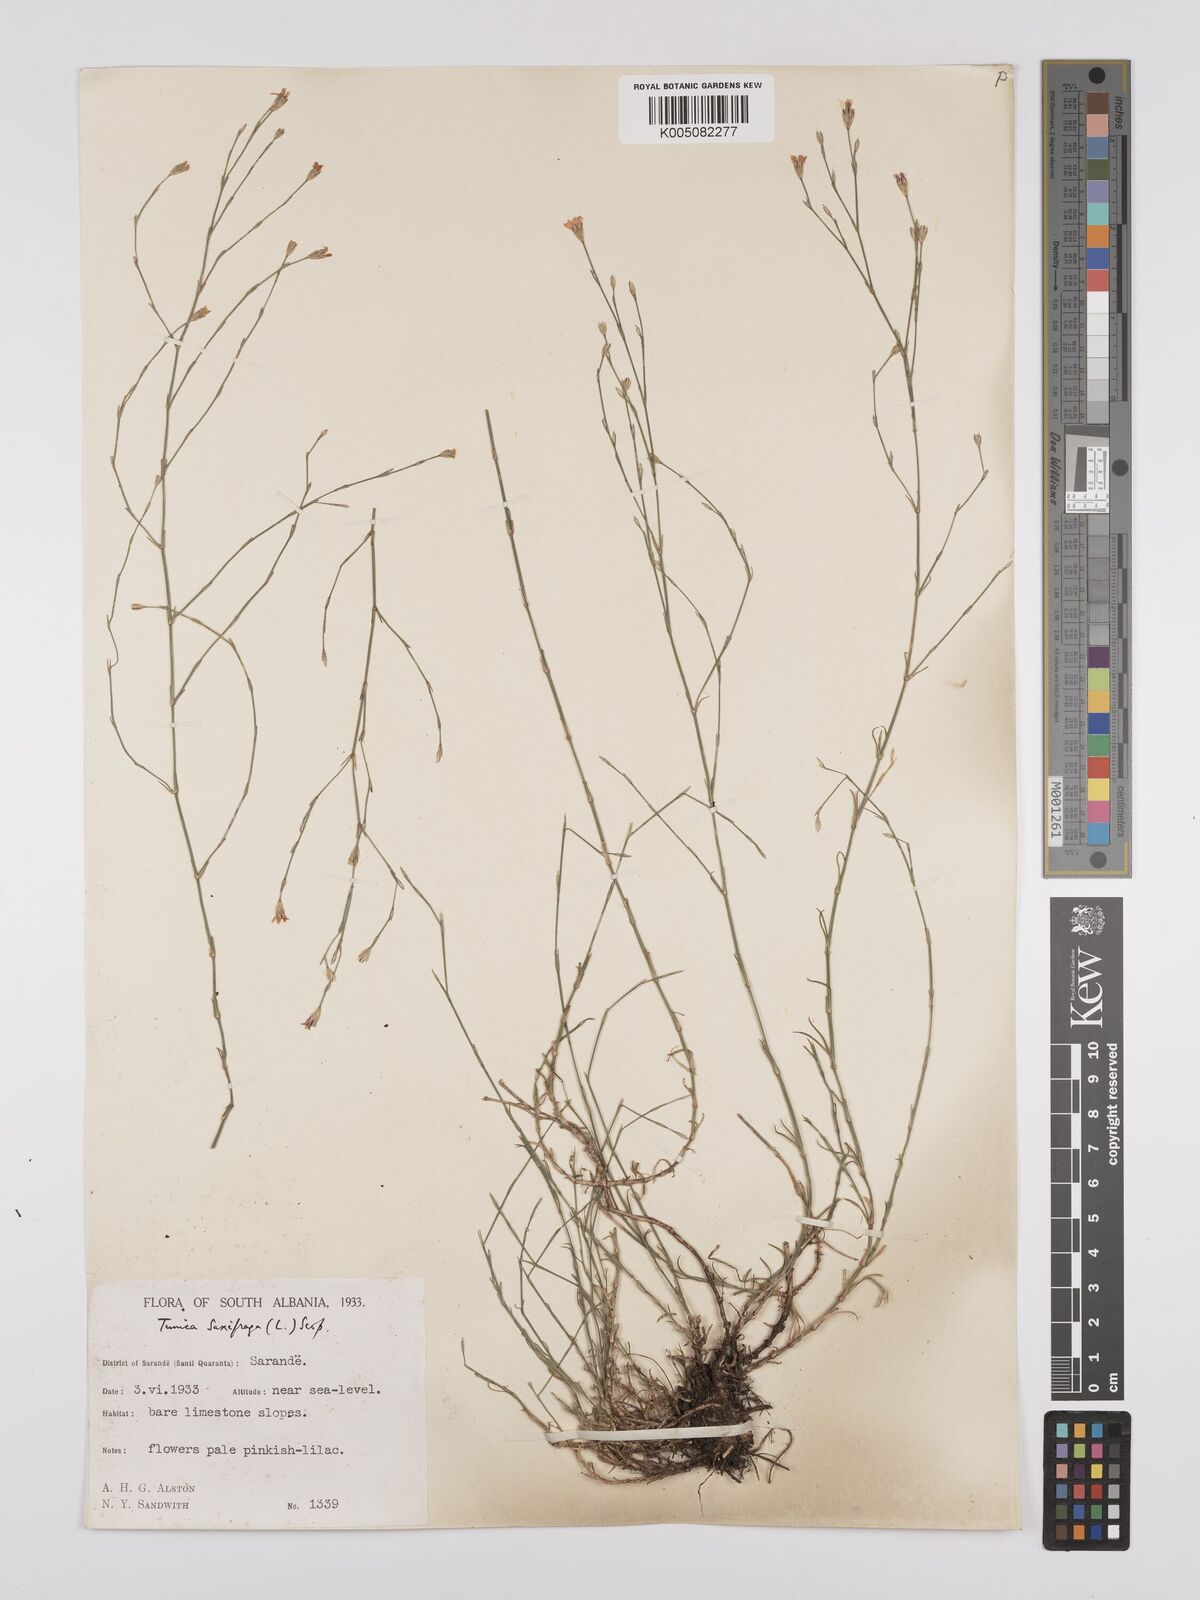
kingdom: Plantae
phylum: Tracheophyta
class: Magnoliopsida
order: Caryophyllales
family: Caryophyllaceae
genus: Petrorhagia
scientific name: Petrorhagia saxifraga
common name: Tunicflower
